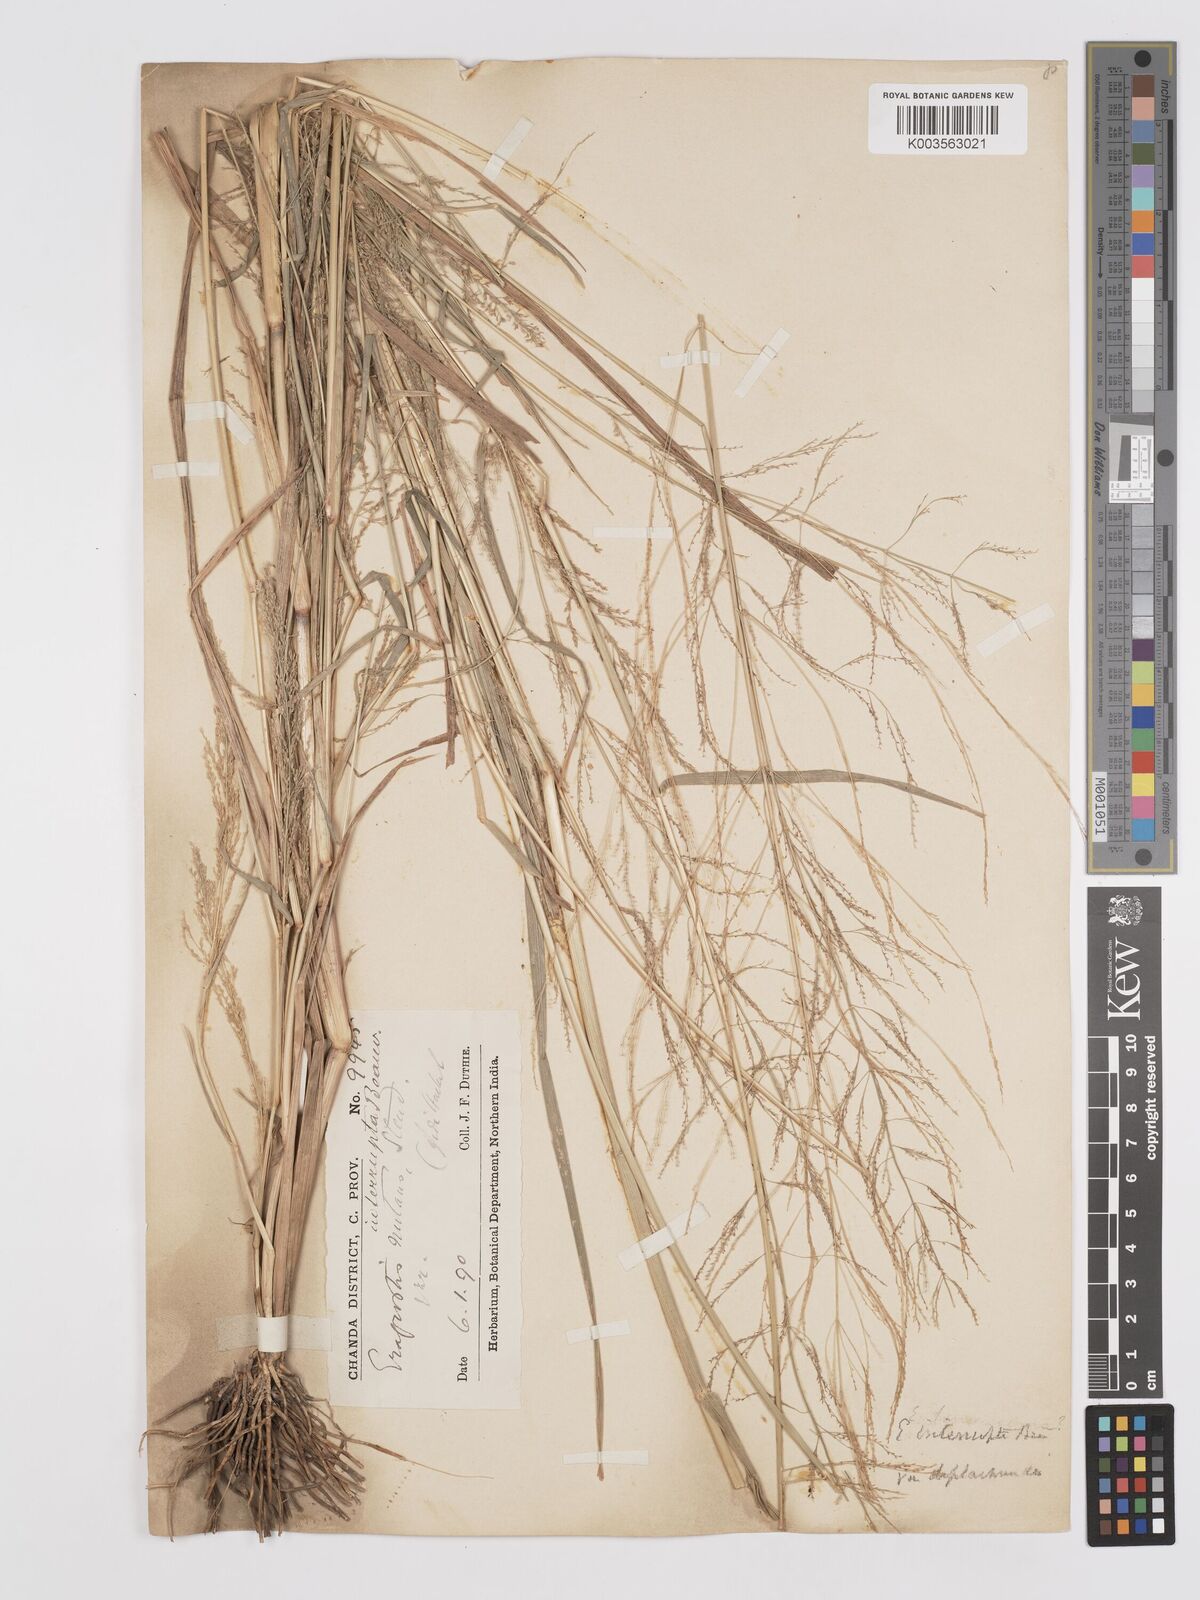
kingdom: Plantae
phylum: Tracheophyta
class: Liliopsida
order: Poales
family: Poaceae
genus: Eragrostis
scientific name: Eragrostis japonica
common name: Pond lovegrass
